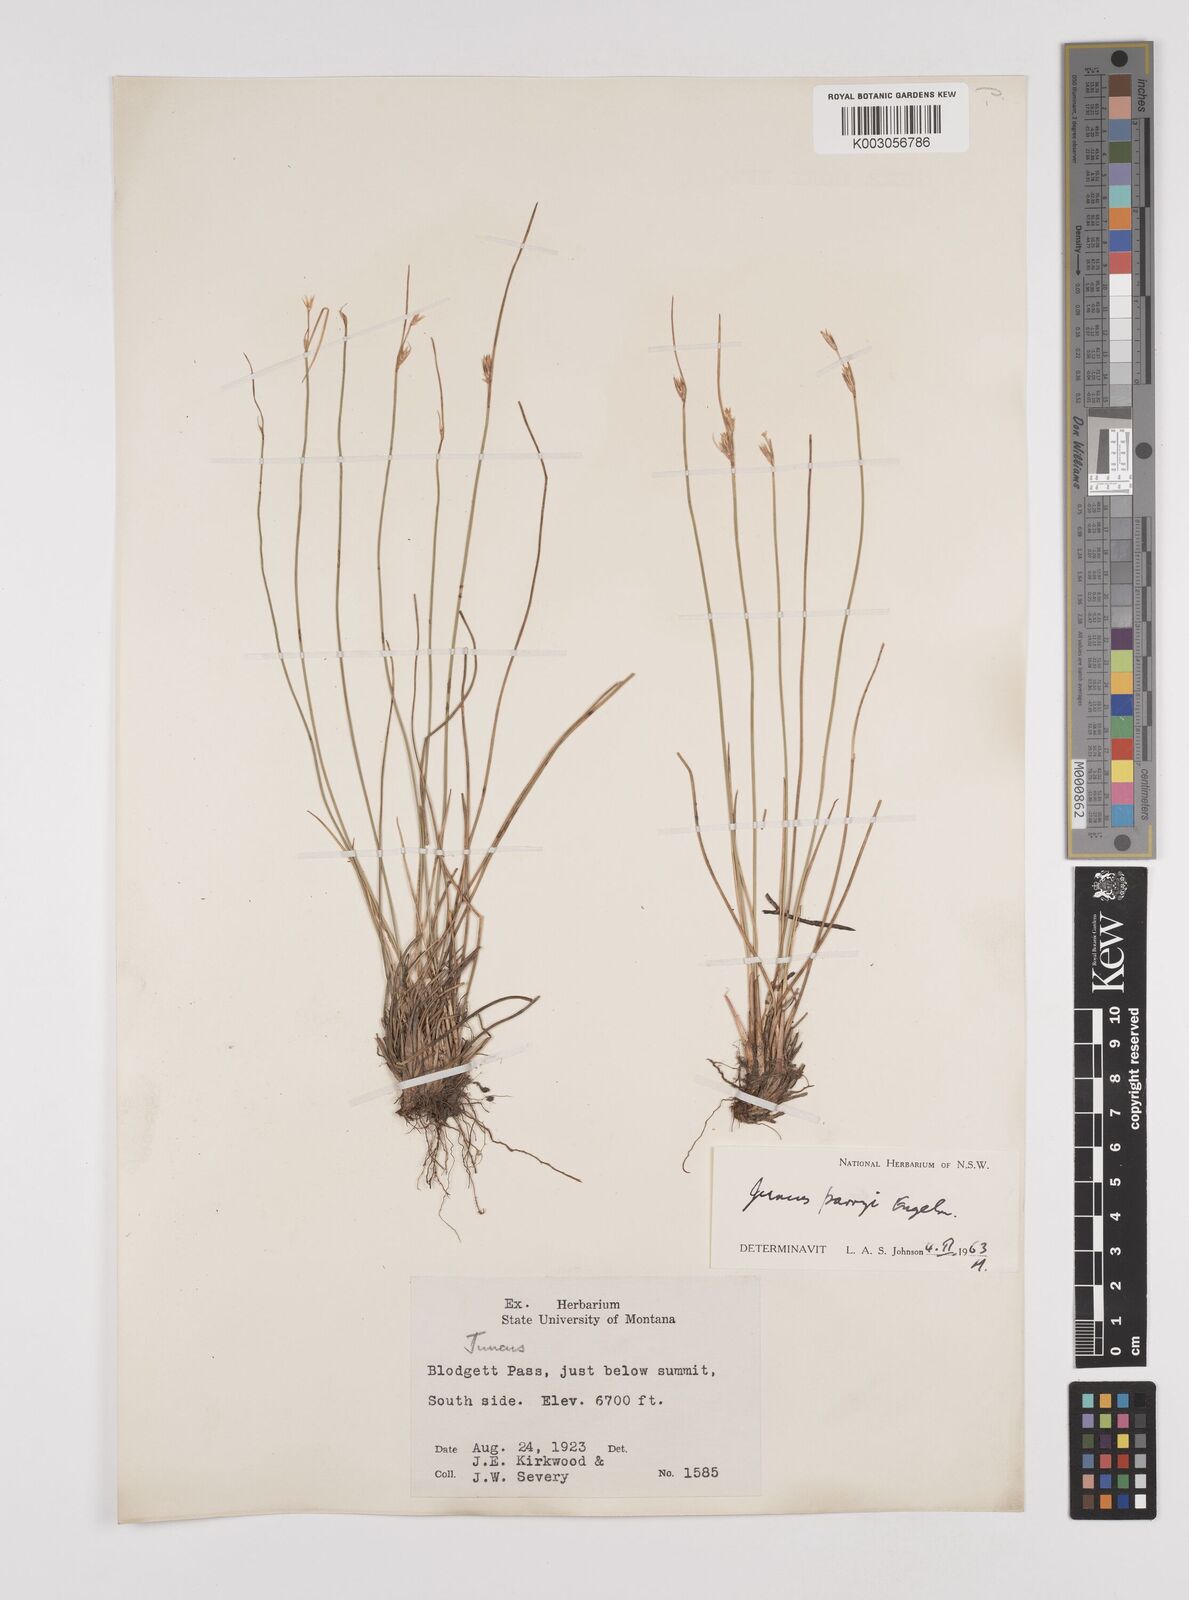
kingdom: Plantae
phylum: Tracheophyta
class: Liliopsida
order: Poales
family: Juncaceae
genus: Juncus
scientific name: Juncus parryi
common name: Parry's rush
